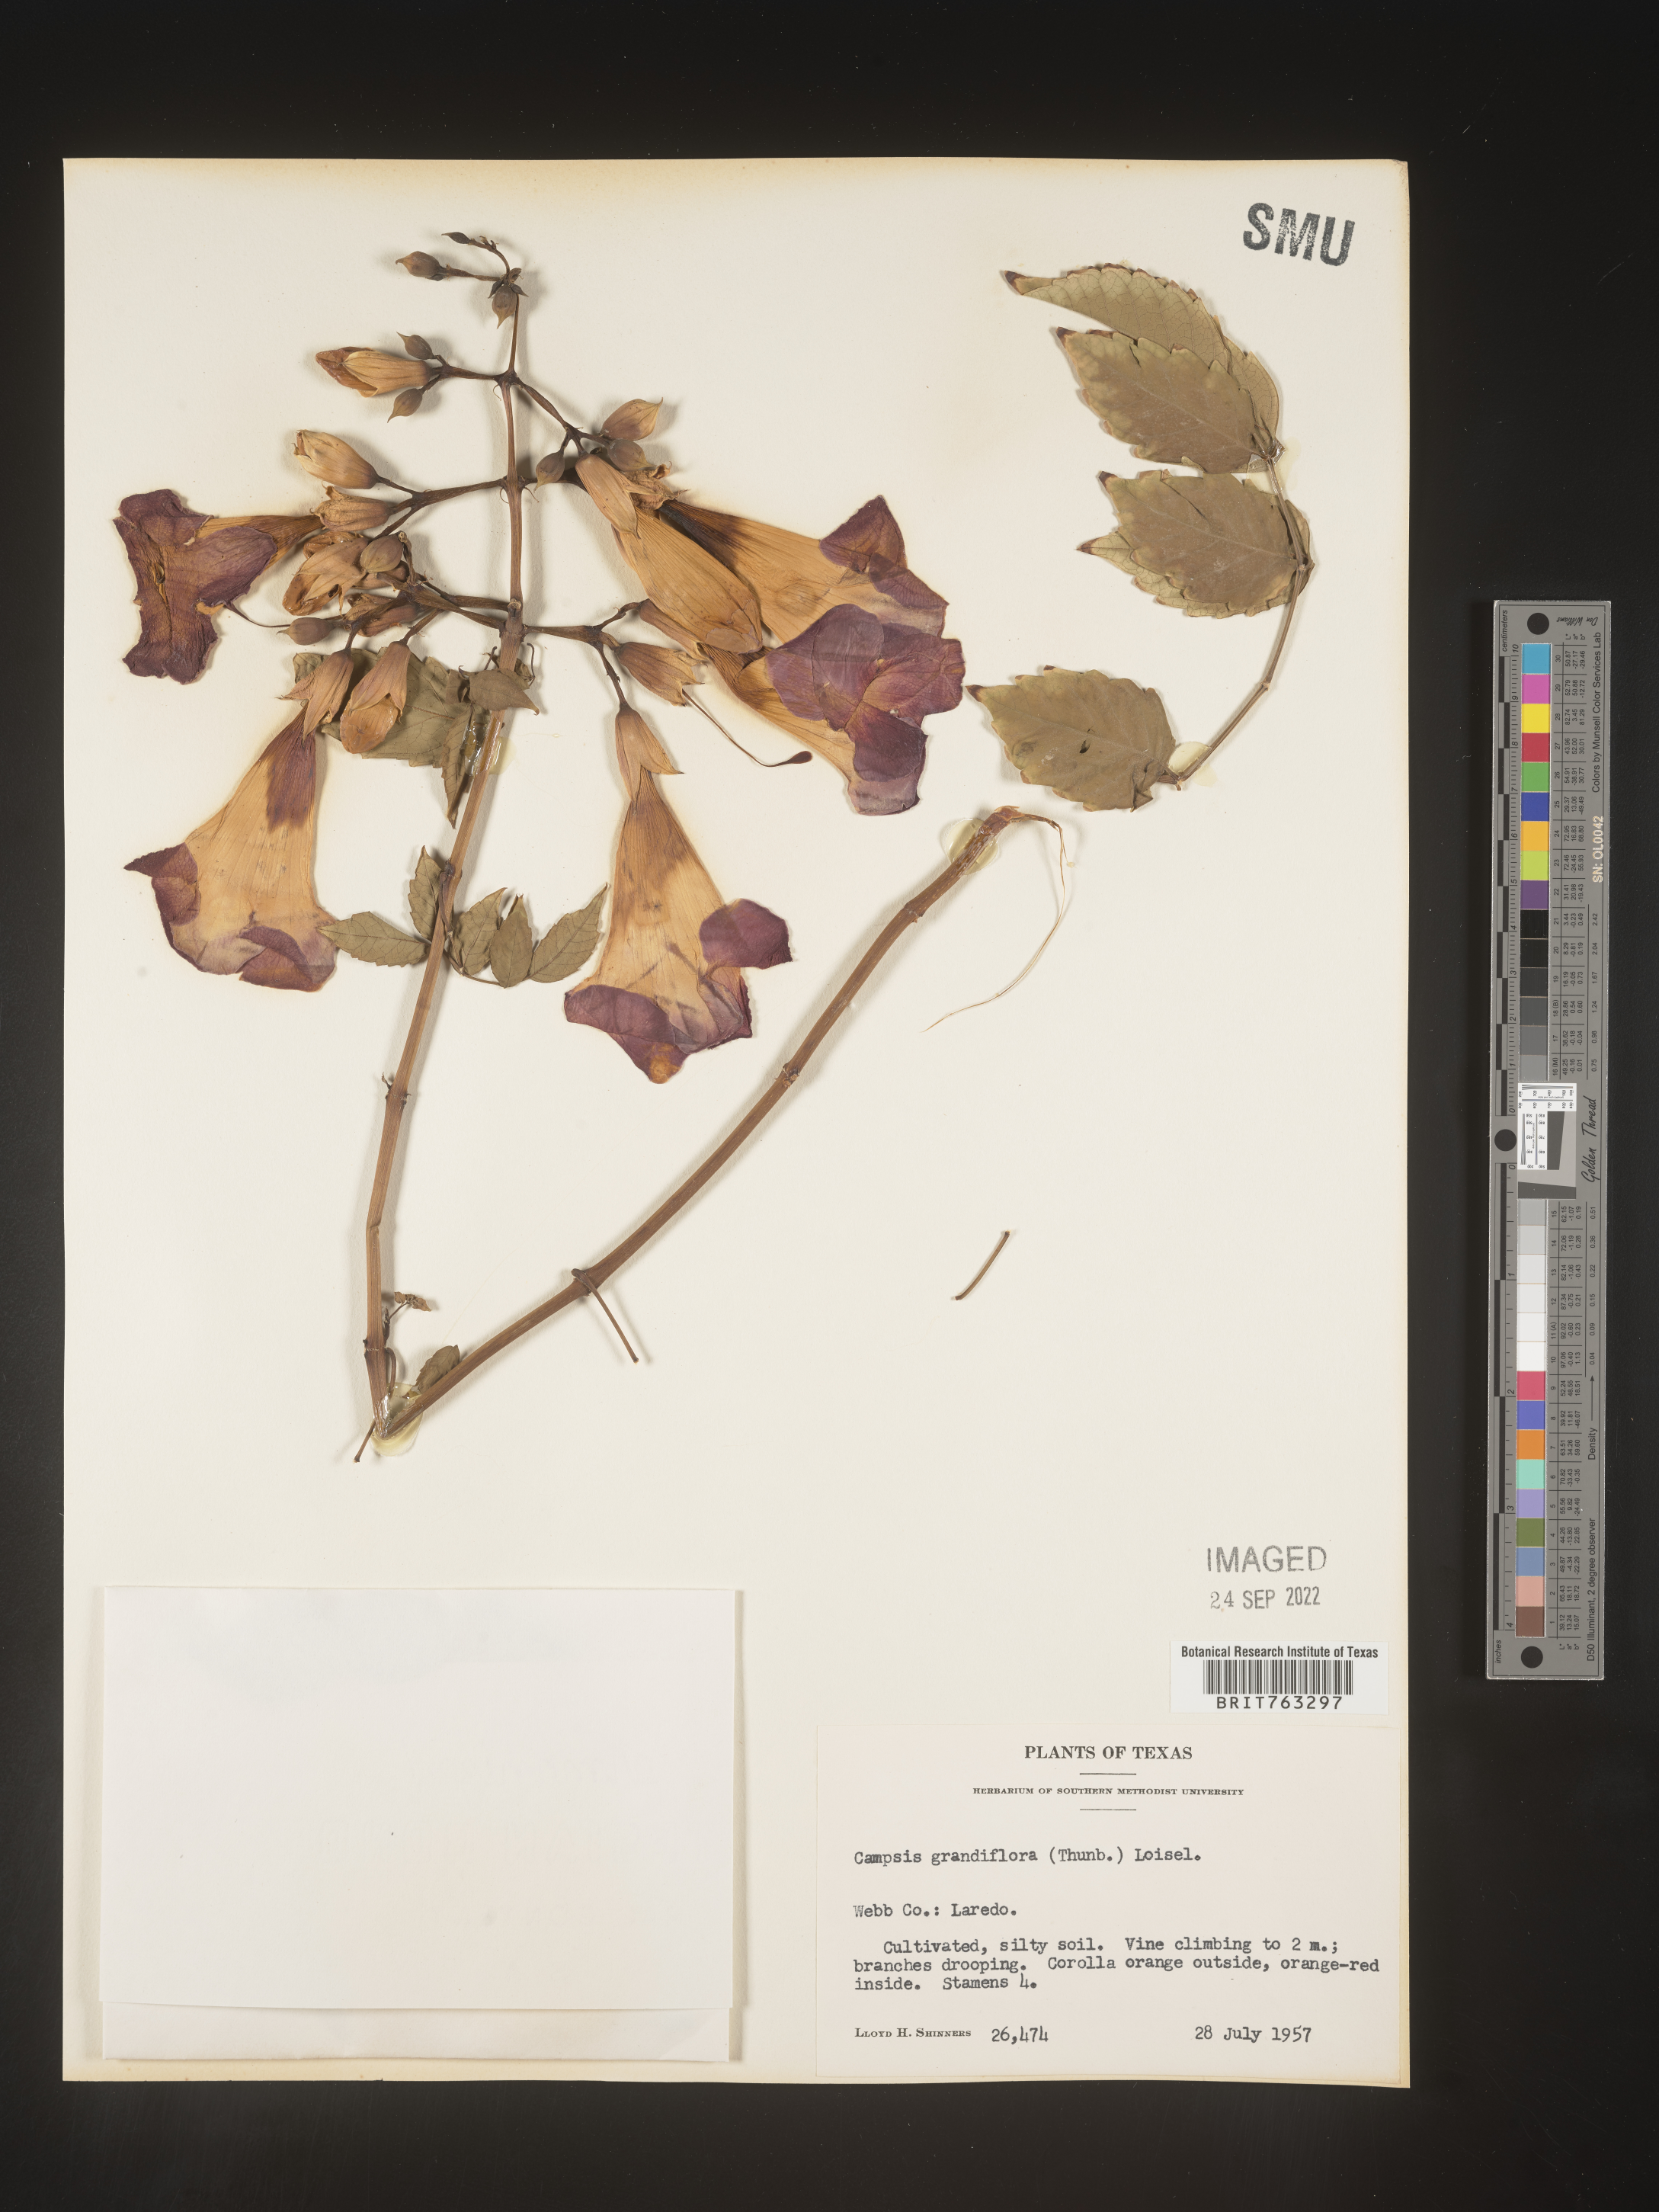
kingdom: Plantae
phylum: Tracheophyta
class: Magnoliopsida
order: Lamiales
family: Bignoniaceae
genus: Campsis
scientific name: Campsis
